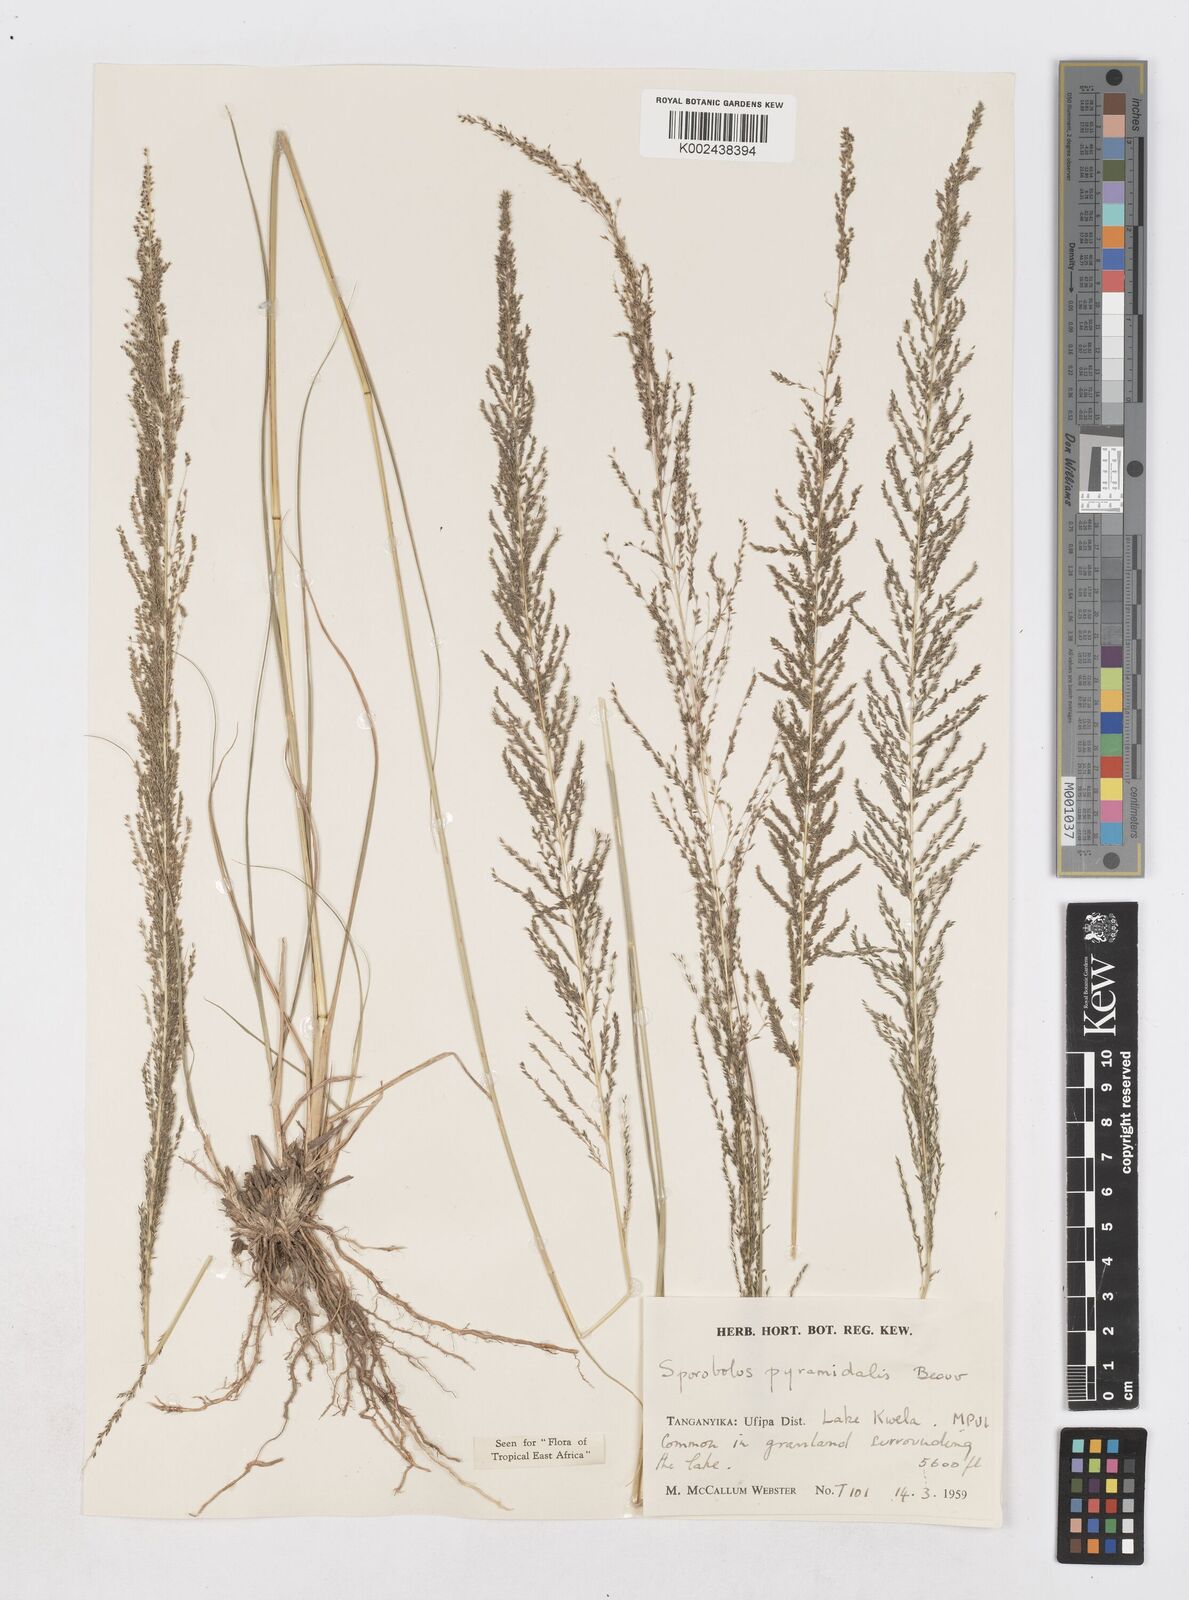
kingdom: Plantae
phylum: Tracheophyta
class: Liliopsida
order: Poales
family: Poaceae
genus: Sporobolus
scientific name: Sporobolus pyramidalis
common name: West indian dropseed
